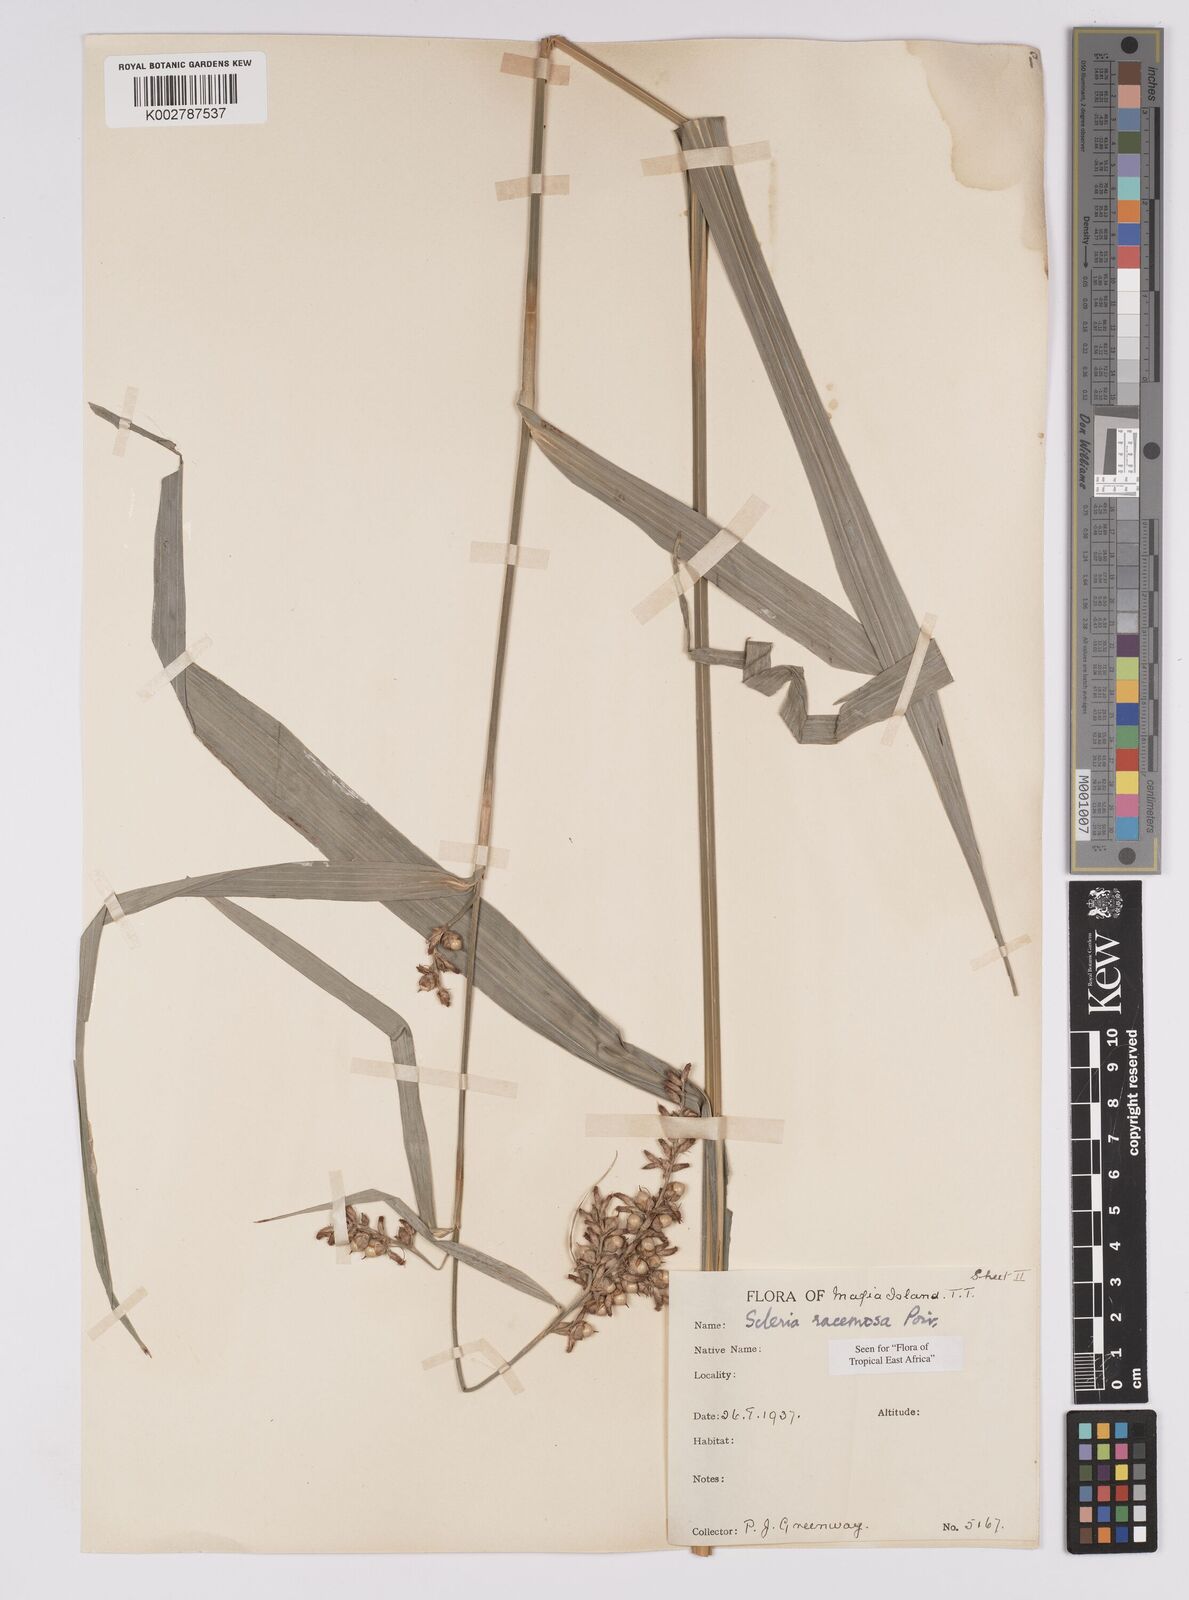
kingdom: Plantae
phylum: Tracheophyta
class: Liliopsida
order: Poales
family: Cyperaceae
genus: Scleria
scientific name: Scleria racemosa
